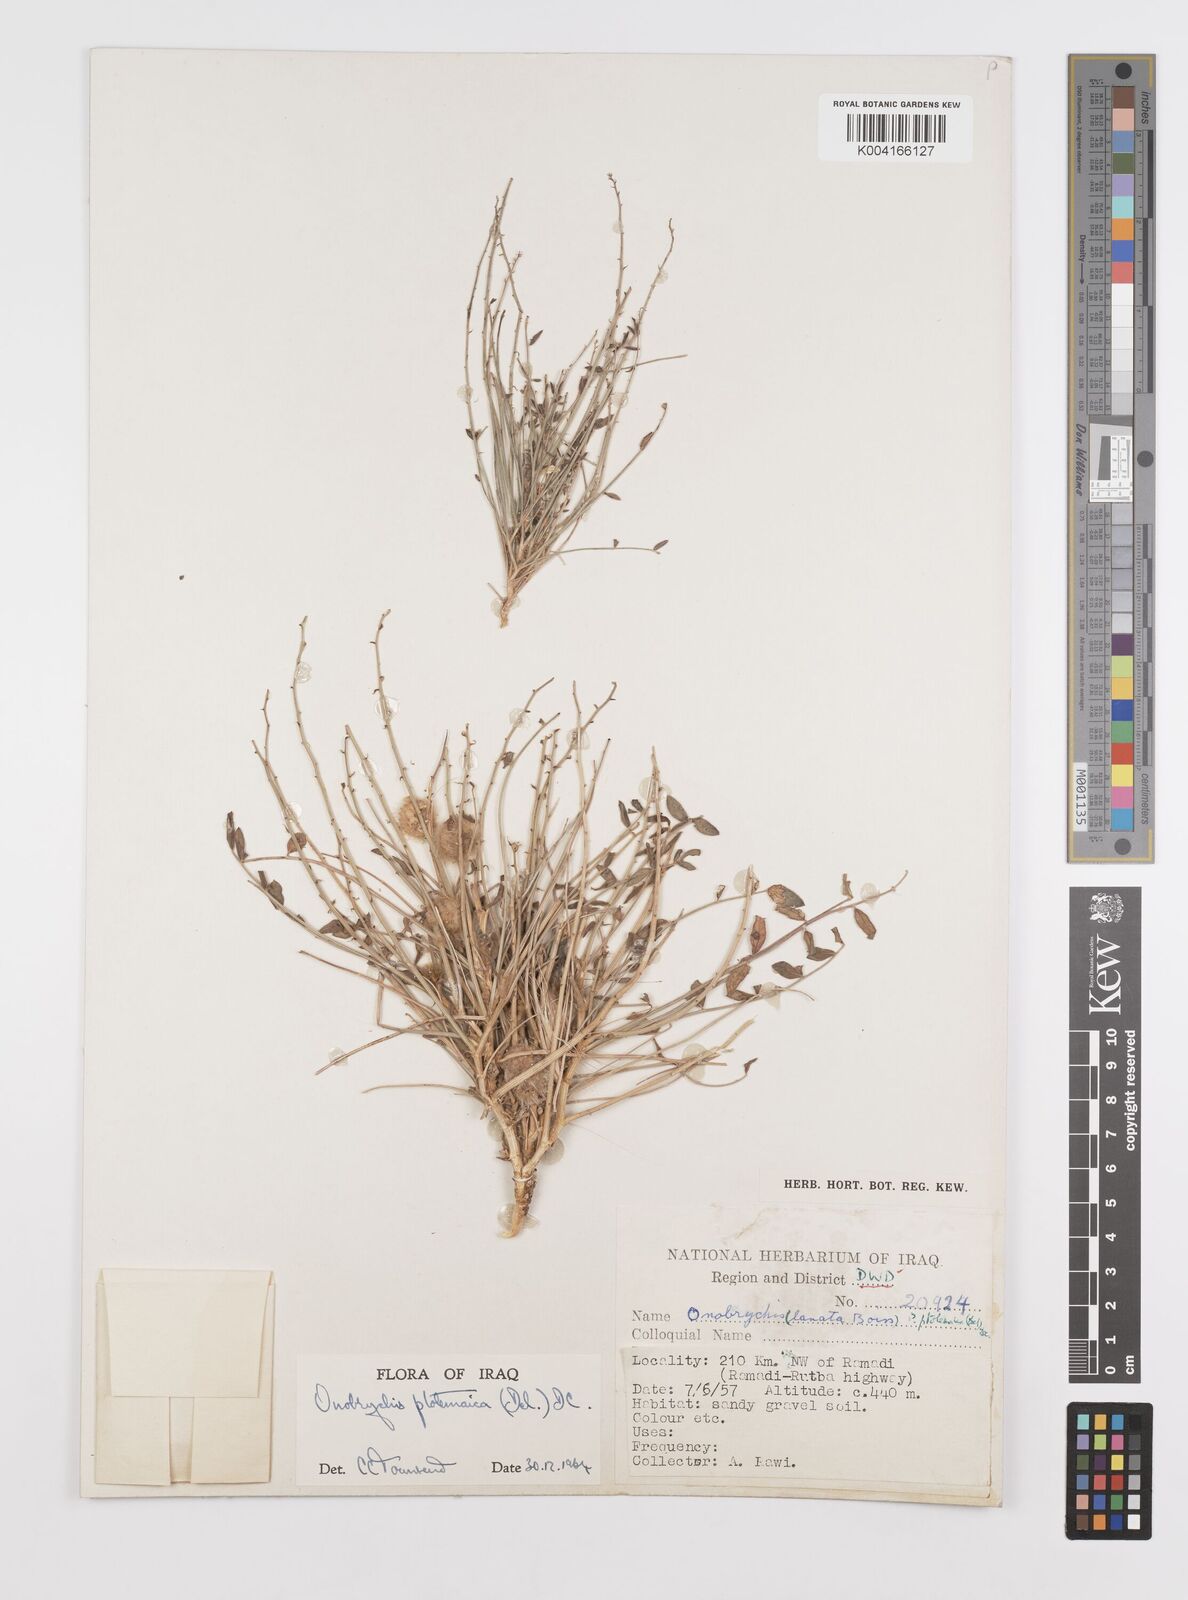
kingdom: Plantae
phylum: Tracheophyta
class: Magnoliopsida
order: Fabales
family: Fabaceae
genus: Onobrychis
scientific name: Onobrychis ptolemaica
